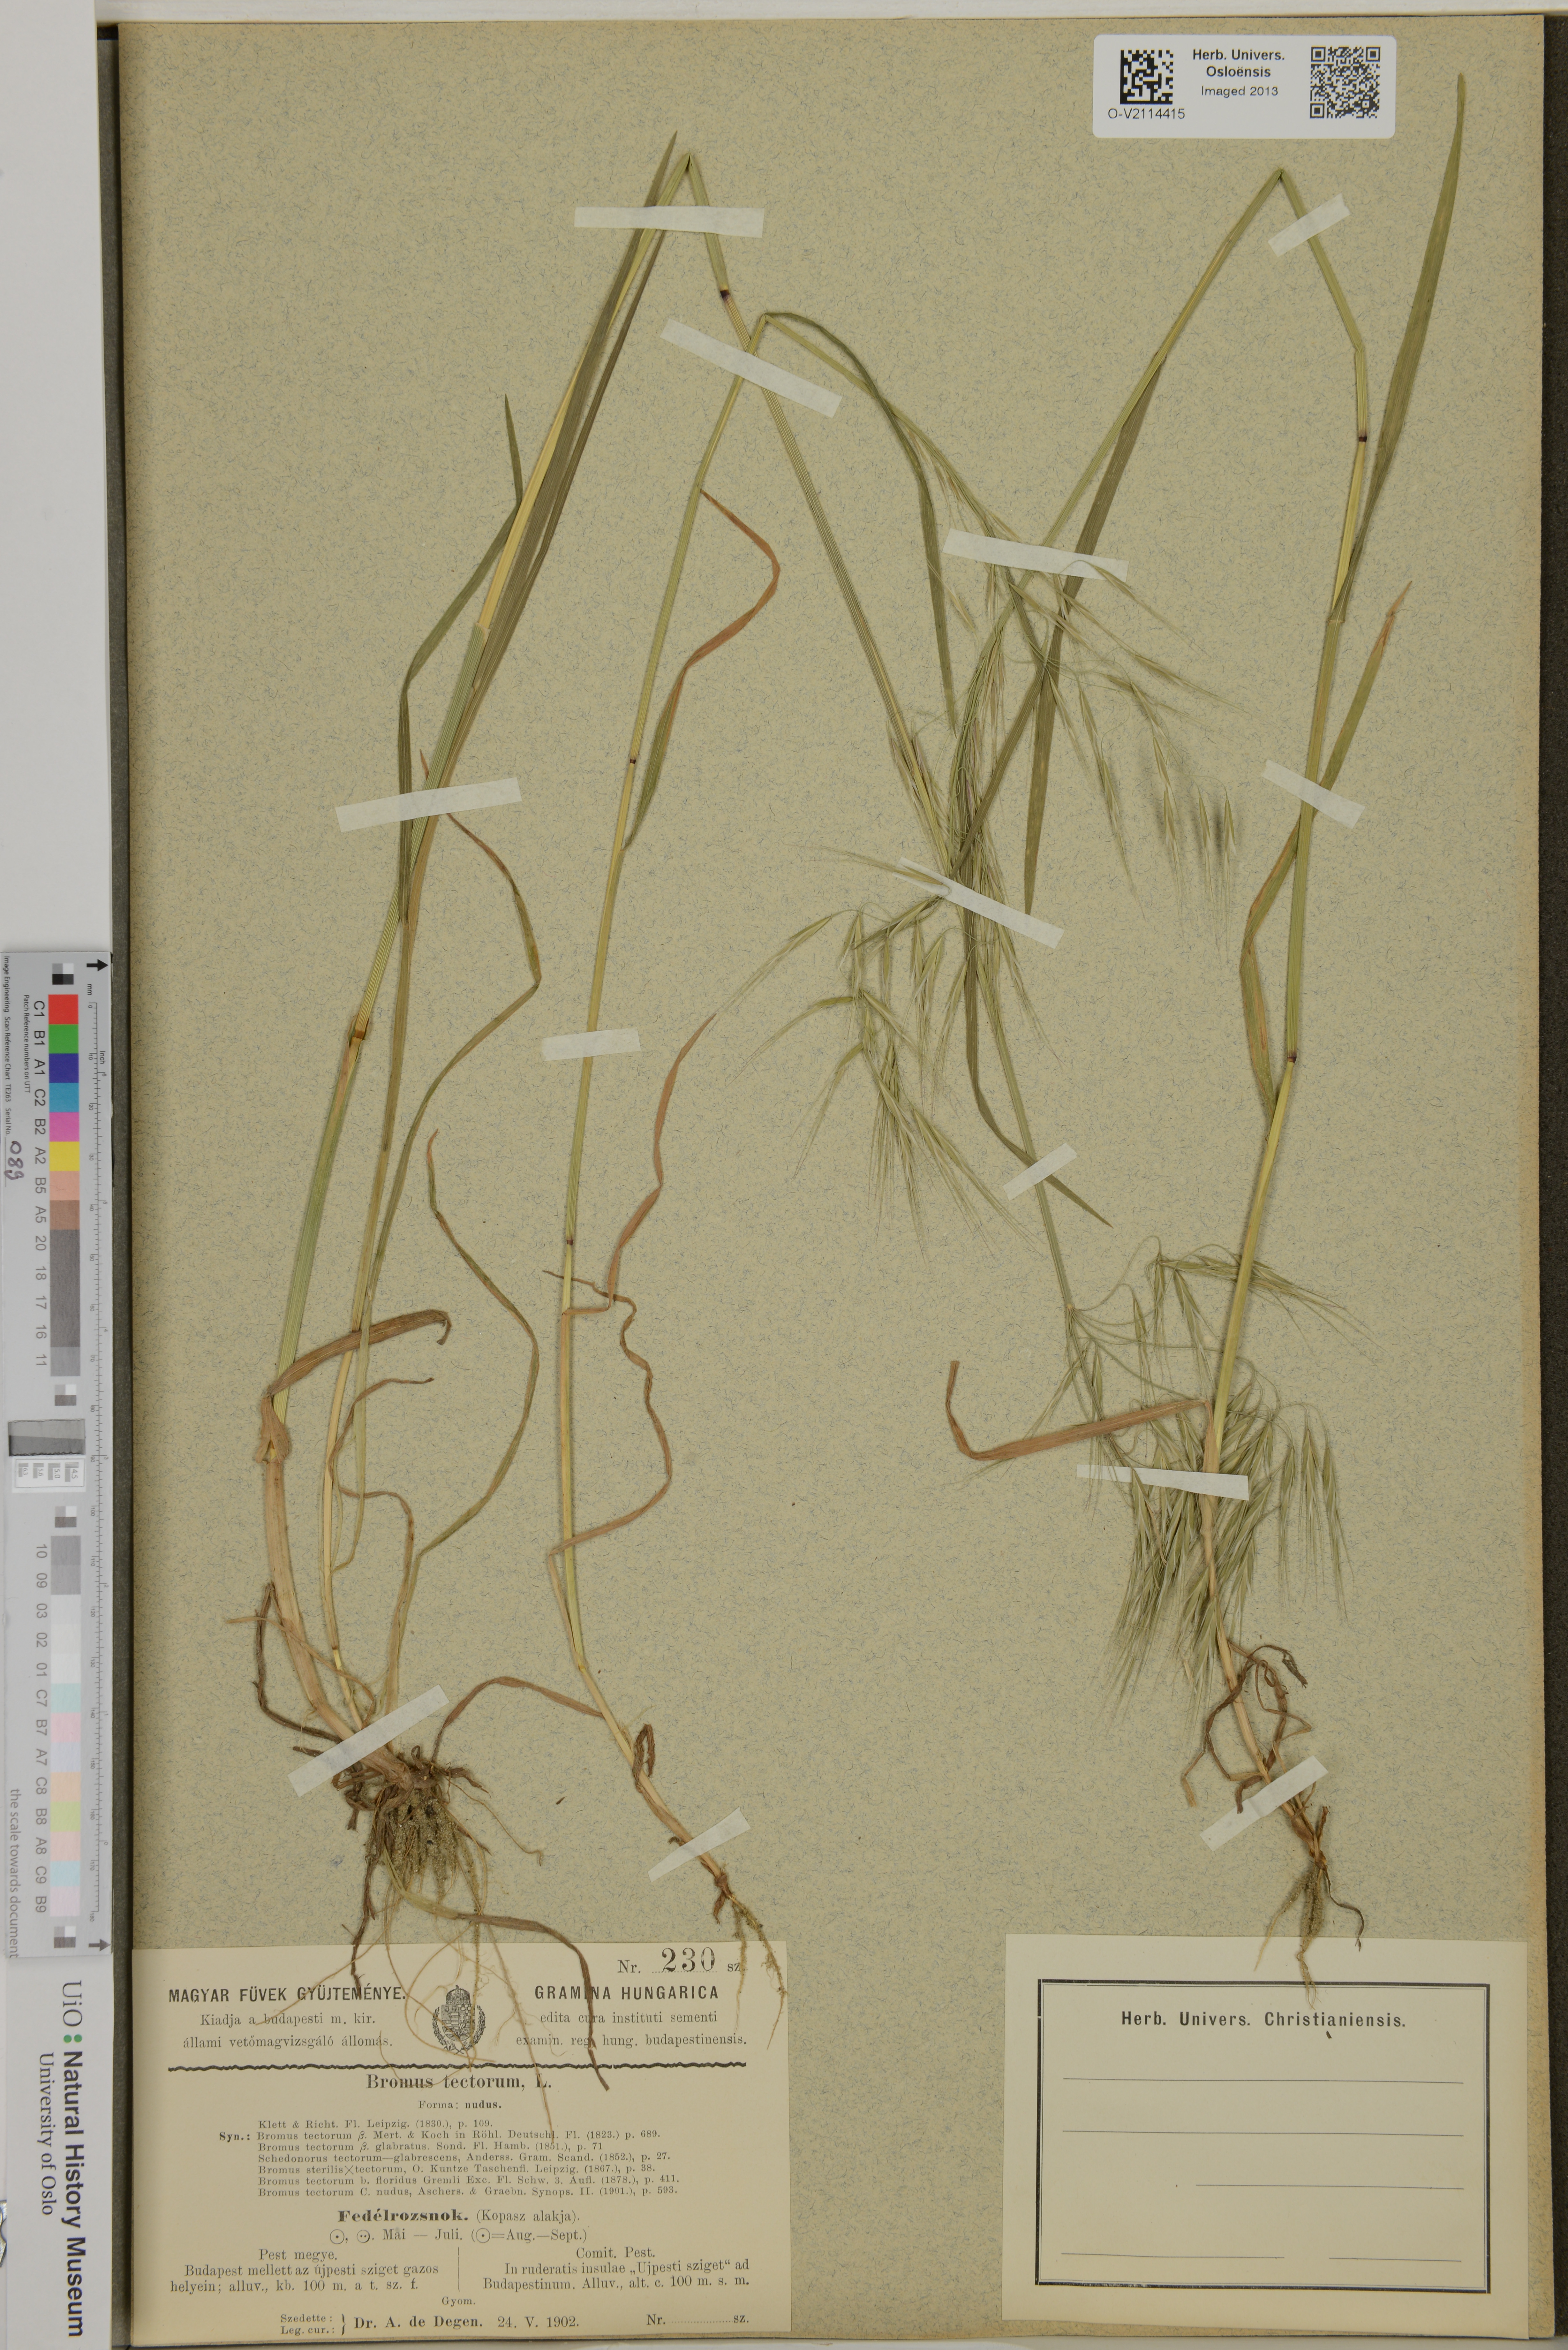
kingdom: Plantae
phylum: Tracheophyta
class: Liliopsida
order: Poales
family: Poaceae
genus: Bromus
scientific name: Bromus tectorum
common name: Cheatgrass
